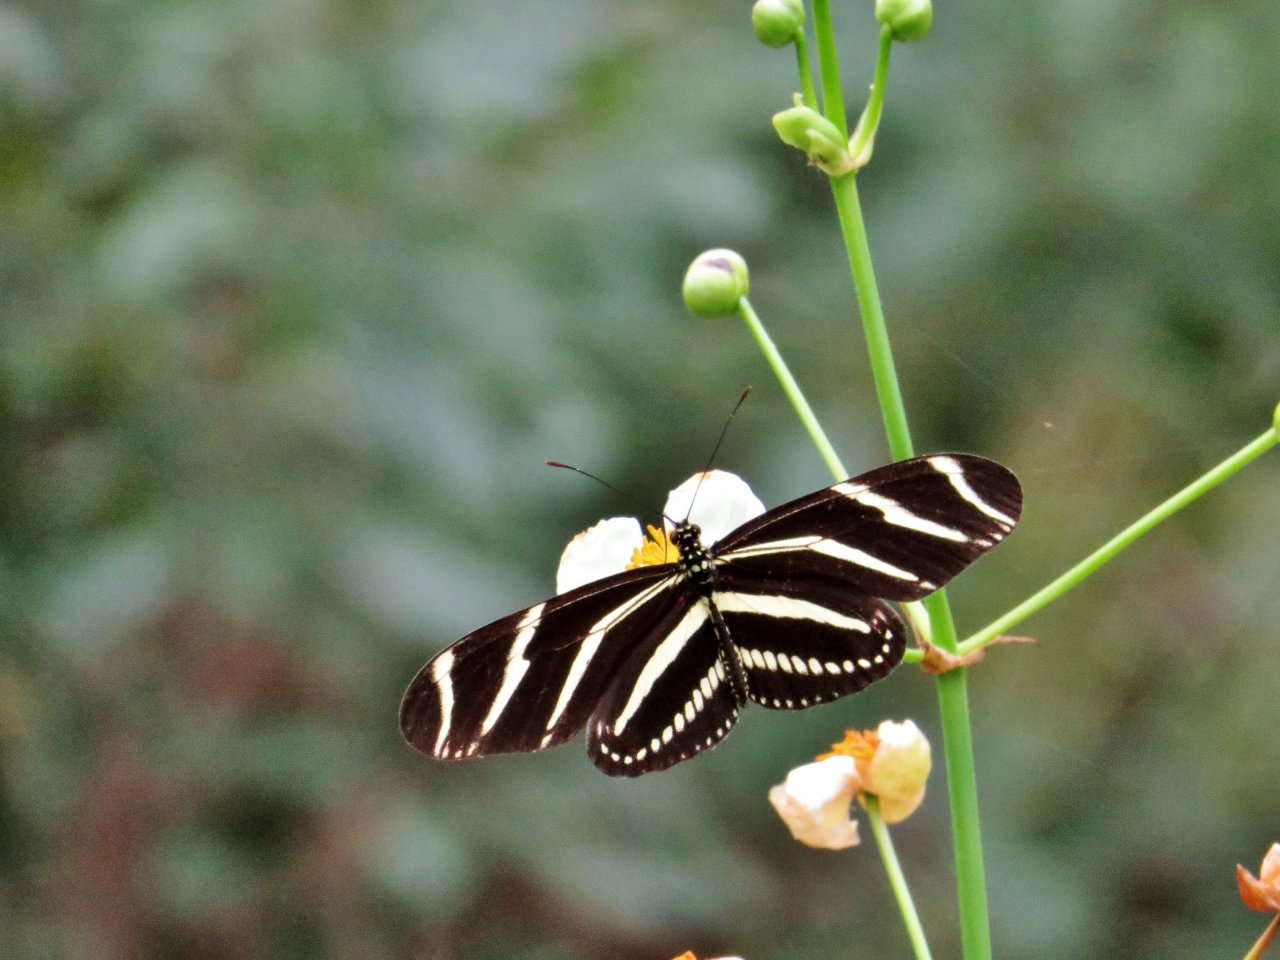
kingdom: Animalia
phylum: Arthropoda
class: Insecta
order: Lepidoptera
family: Nymphalidae
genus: Heliconius
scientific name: Heliconius charithonia
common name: Zebra Longwing
